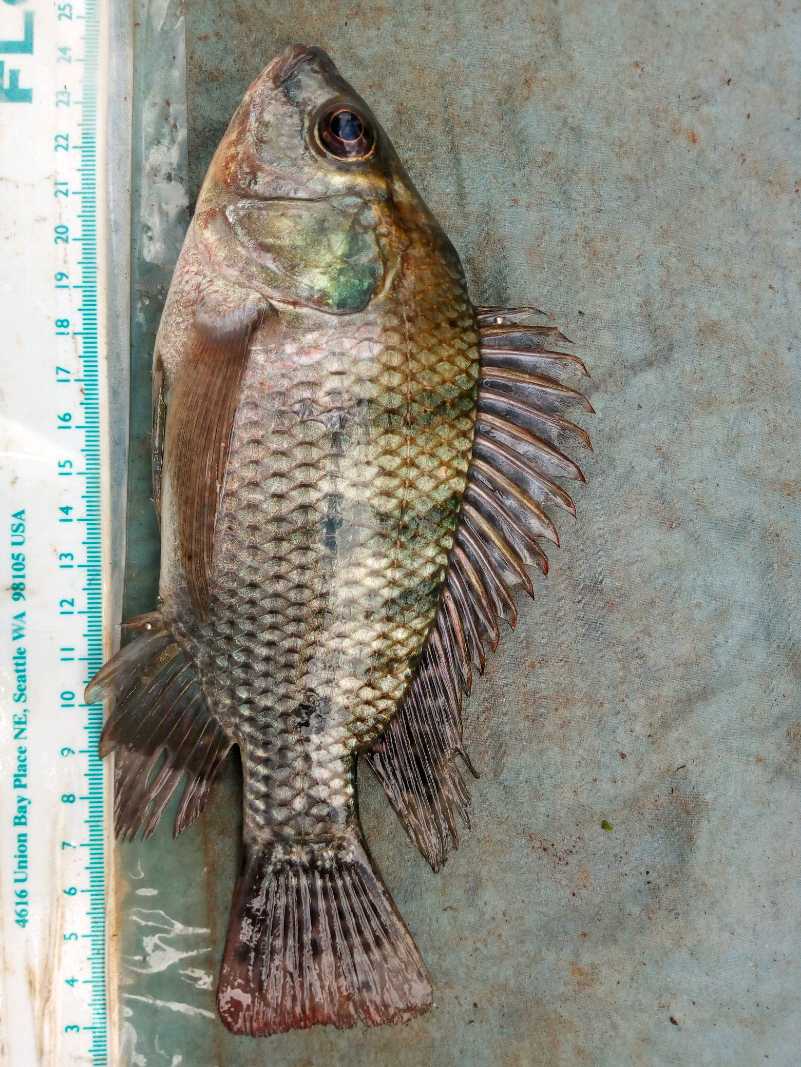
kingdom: Animalia
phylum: Chordata
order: Perciformes
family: Cichlidae
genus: Oreochromis
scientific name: Oreochromis niloticus
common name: Nile tilapia
